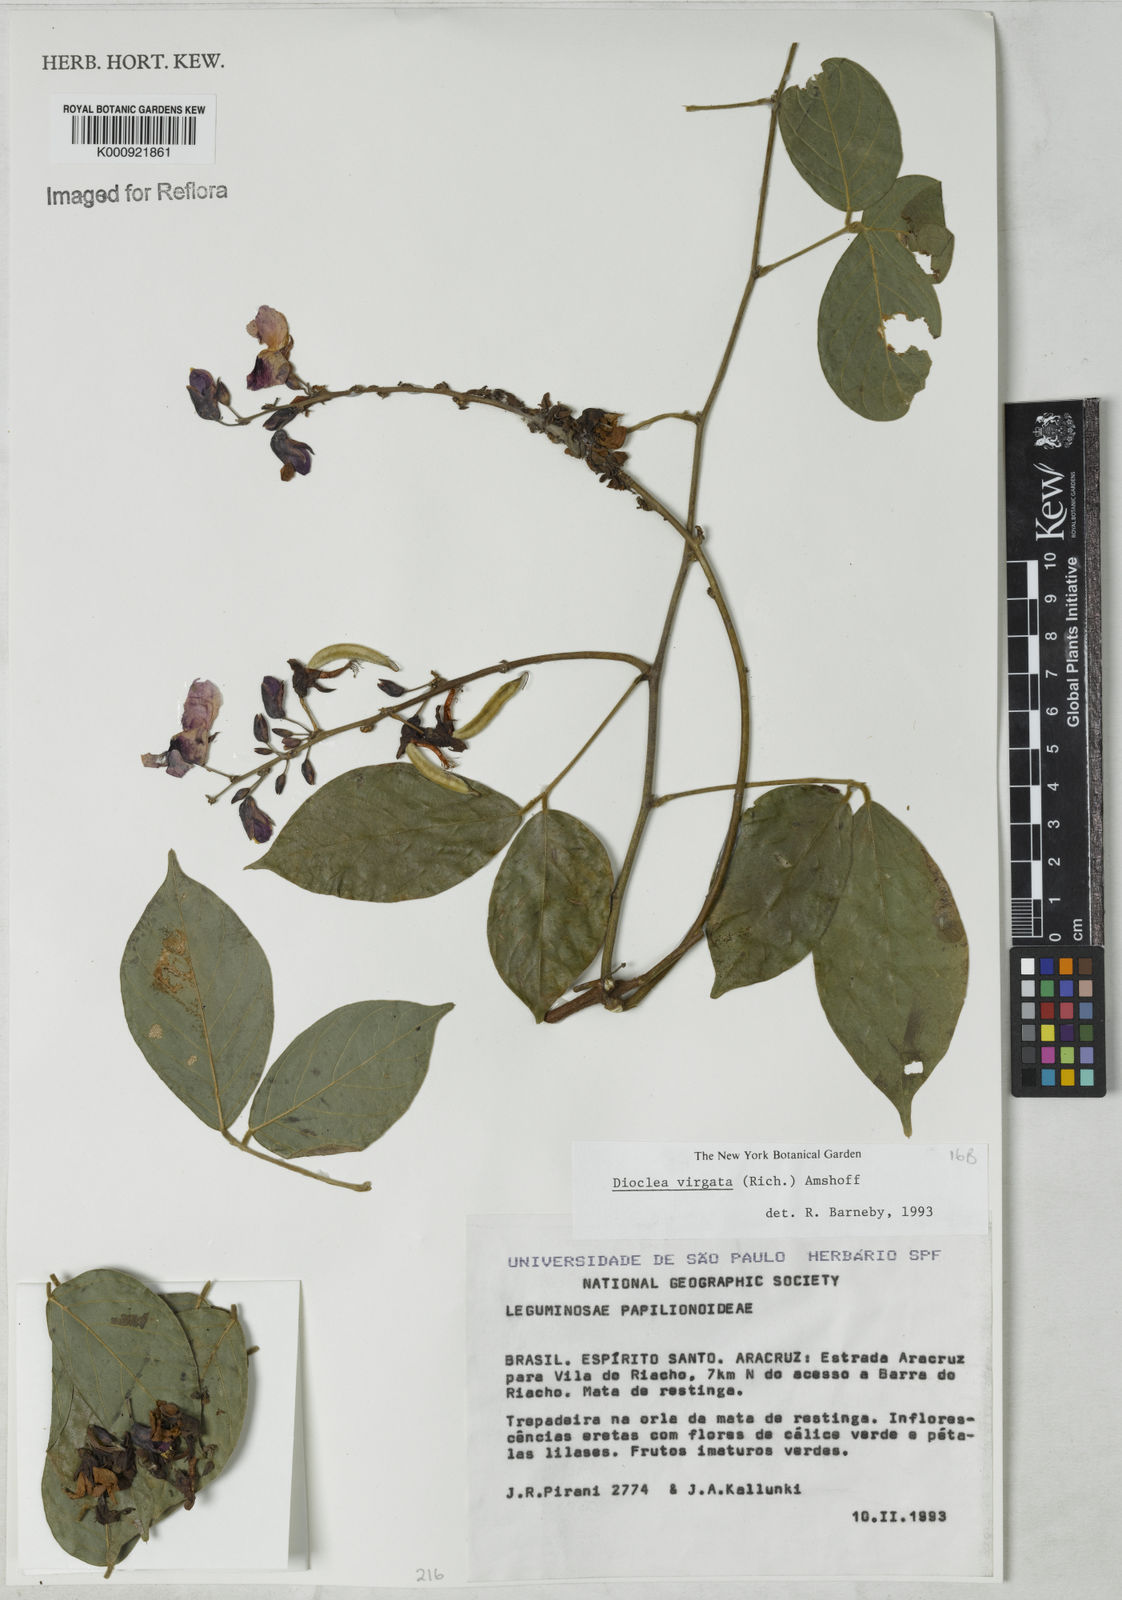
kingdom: Plantae
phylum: Tracheophyta
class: Magnoliopsida
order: Fabales
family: Fabaceae
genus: Dioclea
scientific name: Dioclea virgata
